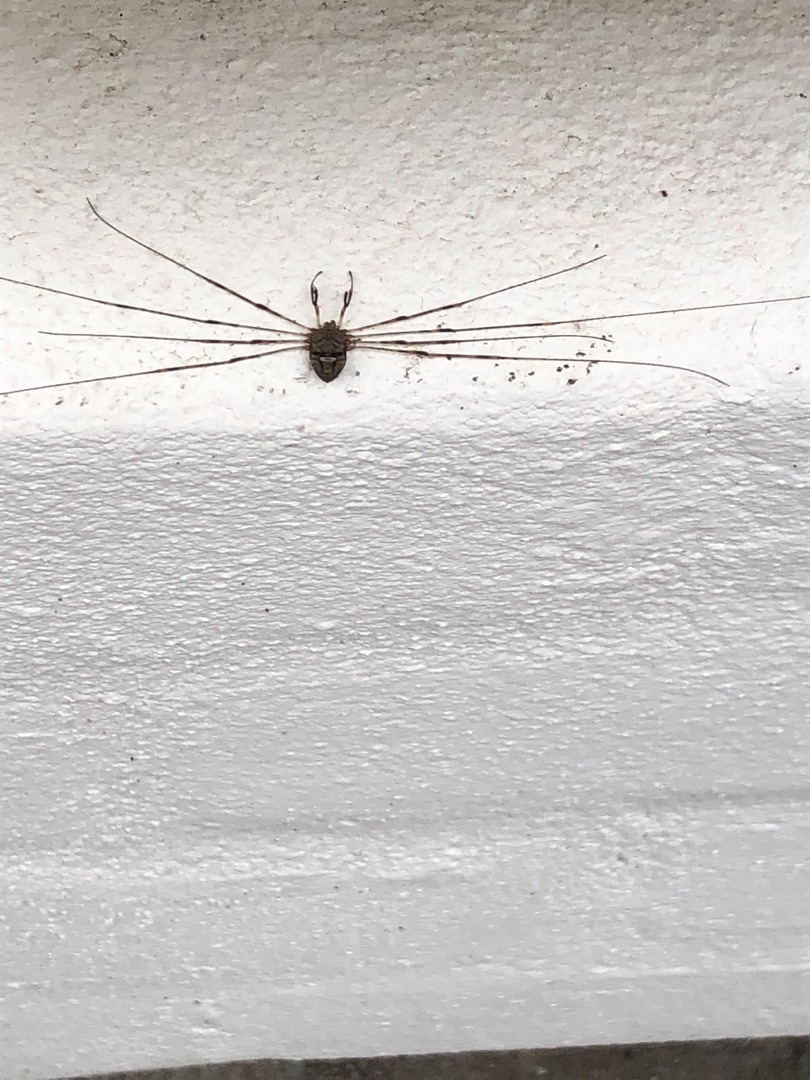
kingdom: Animalia
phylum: Arthropoda
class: Arachnida
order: Opiliones
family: Phalangiidae
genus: Dicranopalpus
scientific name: Dicranopalpus ramosus
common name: Gaffelmejer
